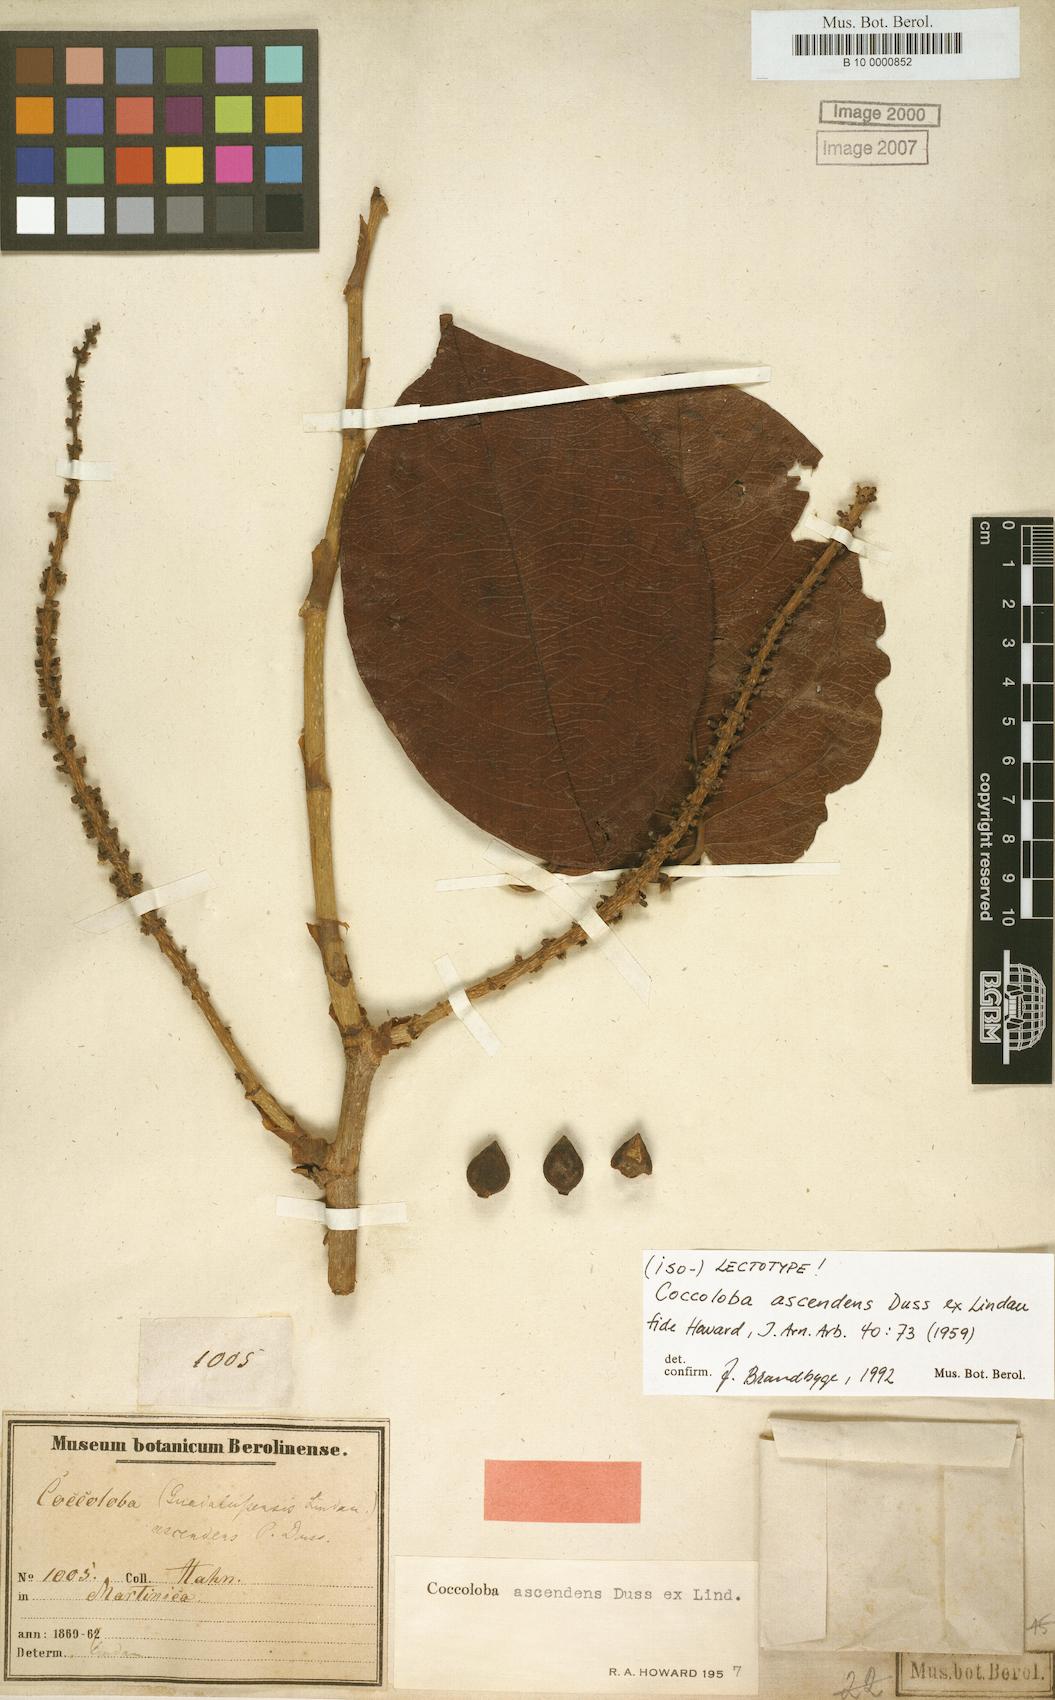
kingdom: Plantae
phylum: Tracheophyta
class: Magnoliopsida
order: Caryophyllales
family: Polygonaceae
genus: Coccoloba
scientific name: Coccoloba ascendens
